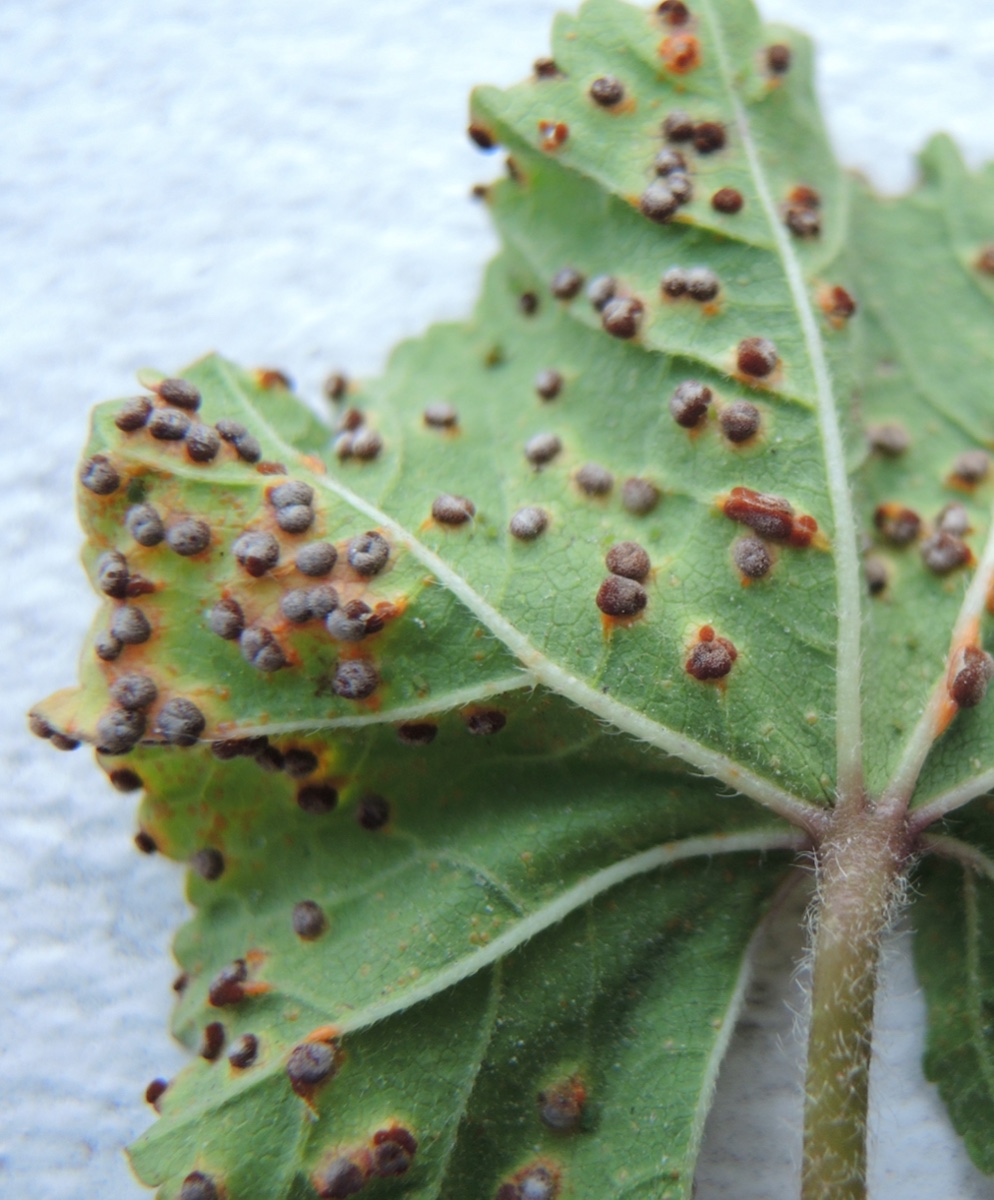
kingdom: Fungi
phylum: Basidiomycota
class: Pucciniomycetes
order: Pucciniales
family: Pucciniaceae
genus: Puccinia
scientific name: Puccinia malvacearum
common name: stokrose-tvecellerust
